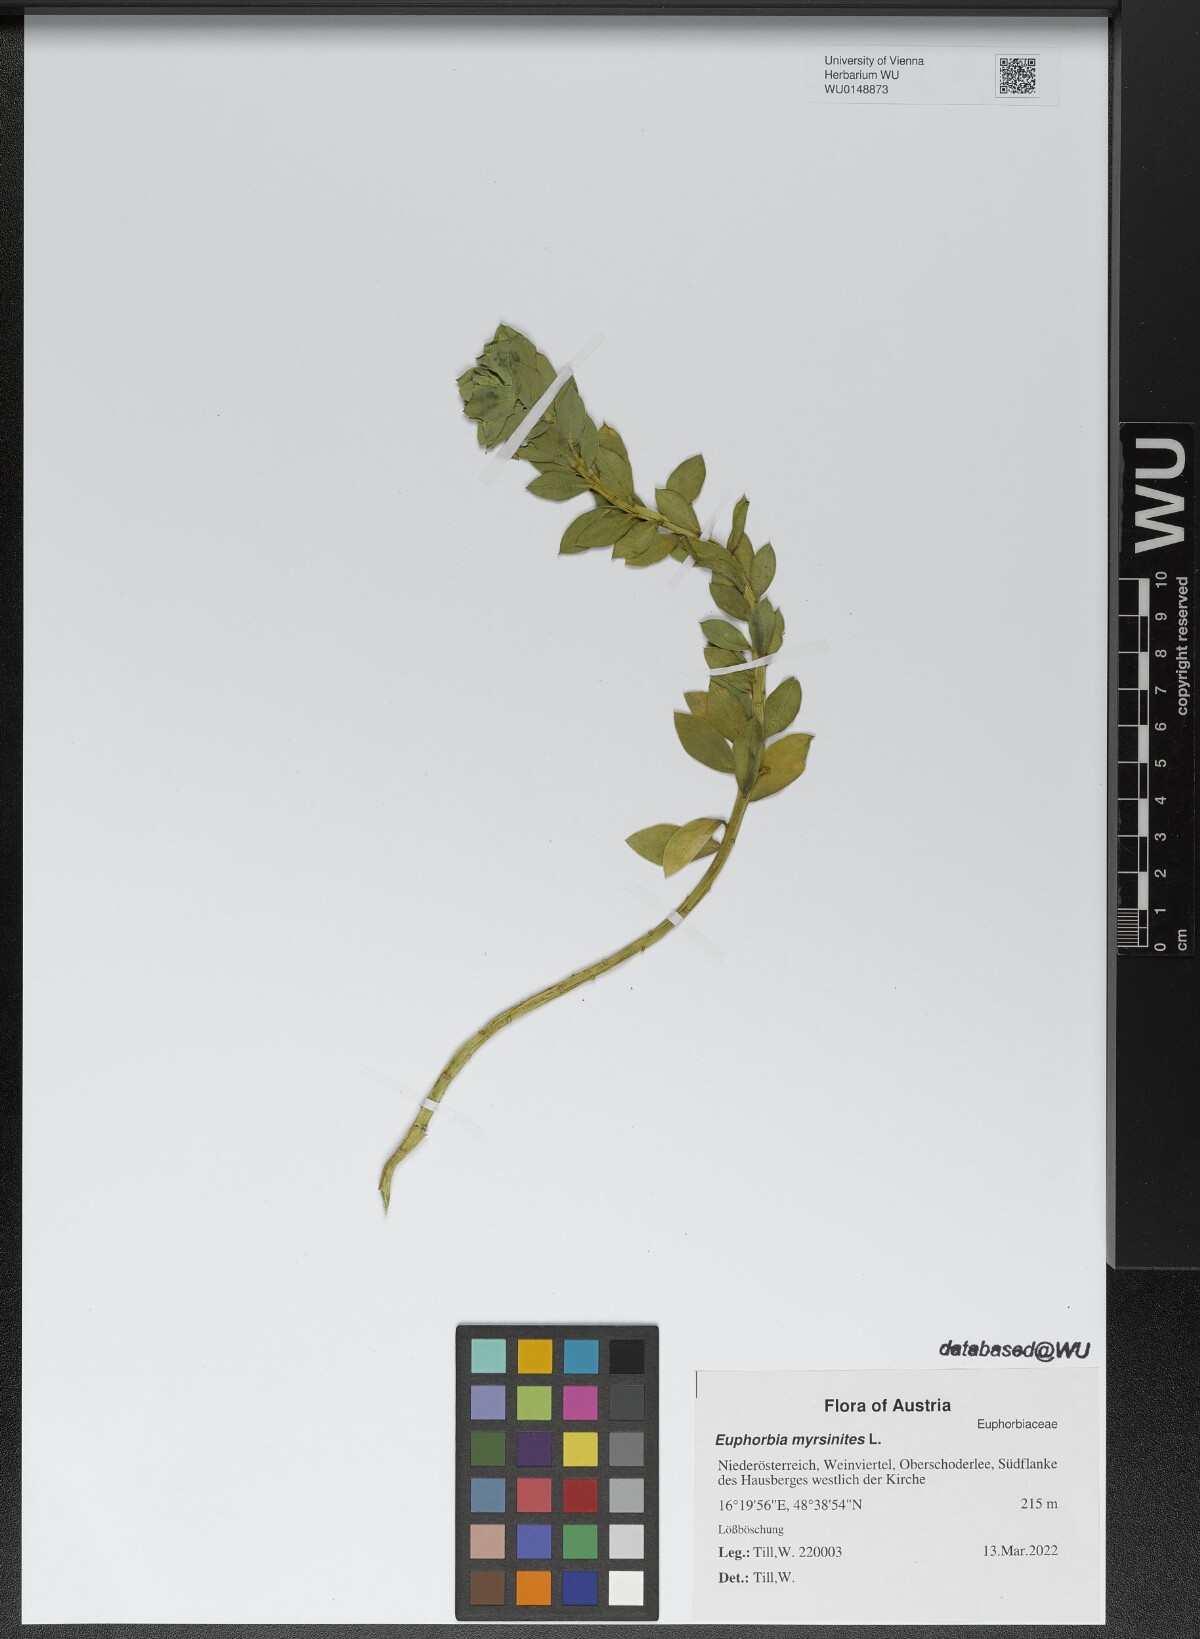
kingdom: Plantae
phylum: Tracheophyta
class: Magnoliopsida
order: Malpighiales
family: Euphorbiaceae
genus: Euphorbia
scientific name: Euphorbia myrsinites
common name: Myrtle spurge
